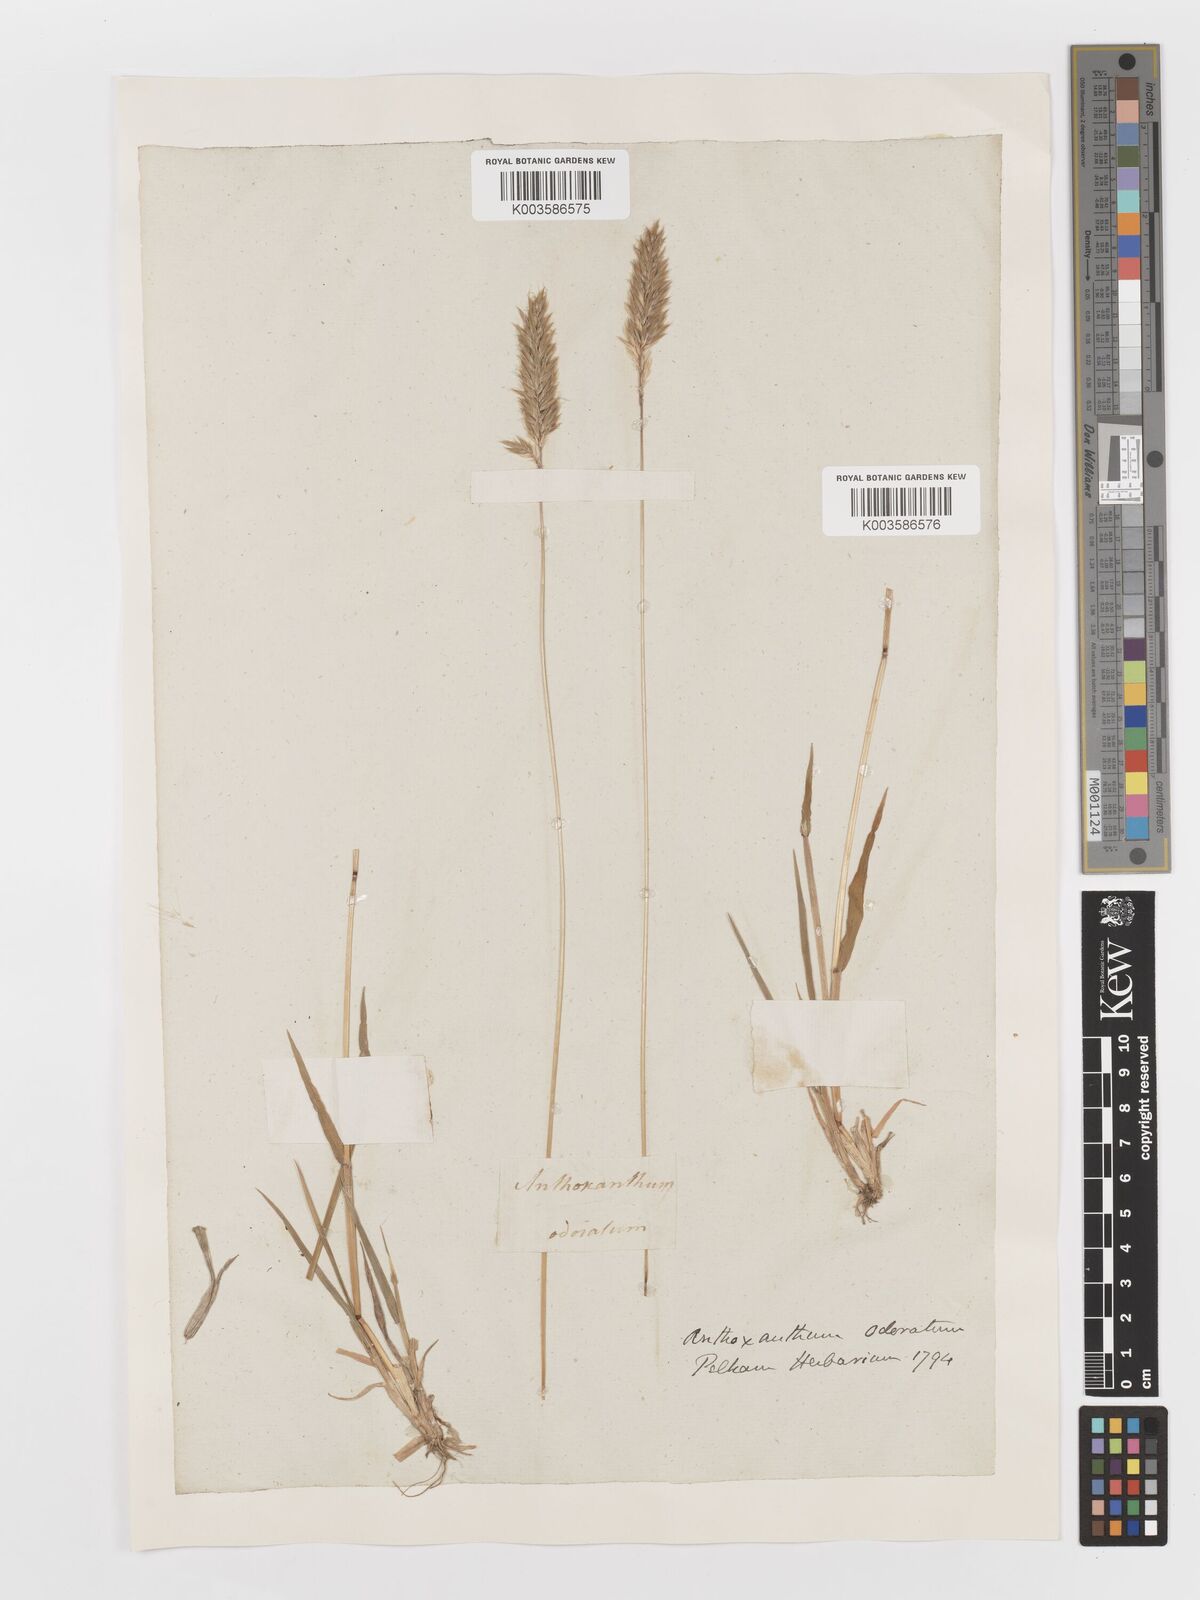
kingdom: Plantae
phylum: Tracheophyta
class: Liliopsida
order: Poales
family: Poaceae
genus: Anthoxanthum
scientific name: Anthoxanthum odoratum
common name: Sweet vernalgrass
